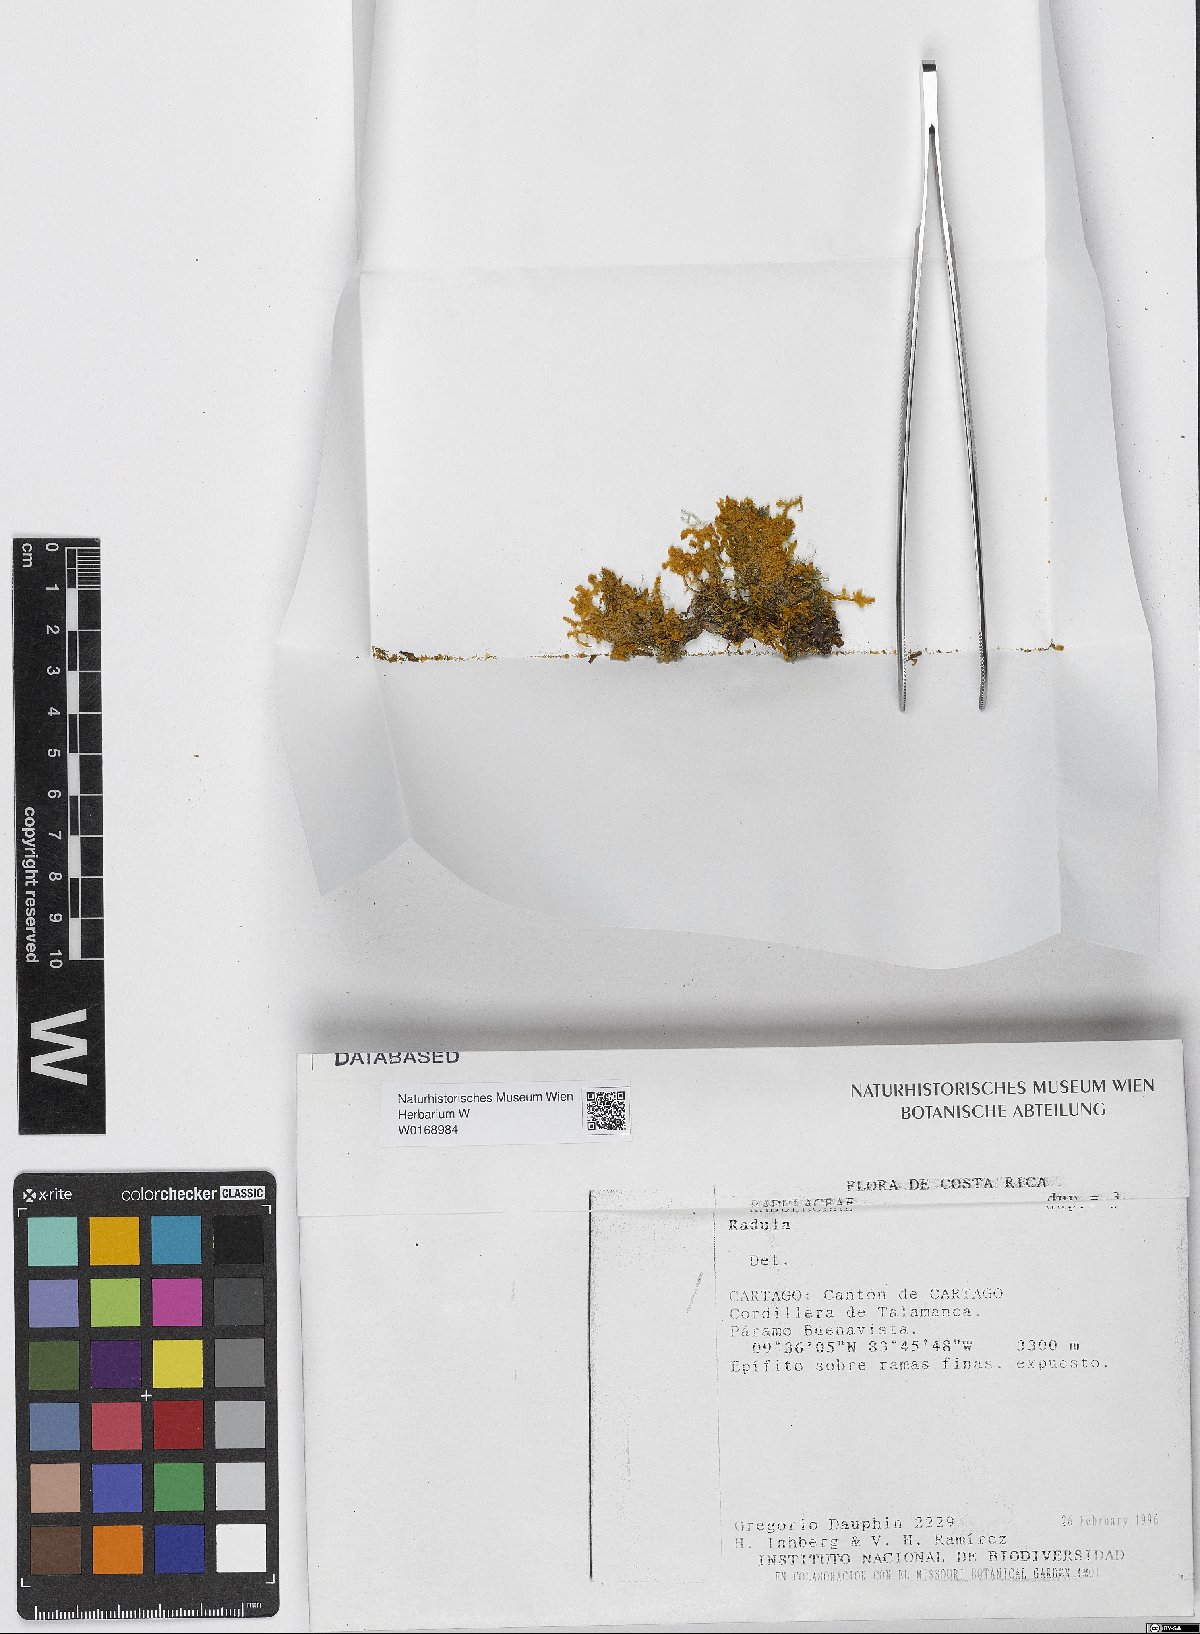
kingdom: Plantae
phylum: Marchantiophyta
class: Jungermanniopsida
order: Porellales
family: Radulaceae
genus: Radula
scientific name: Radula
